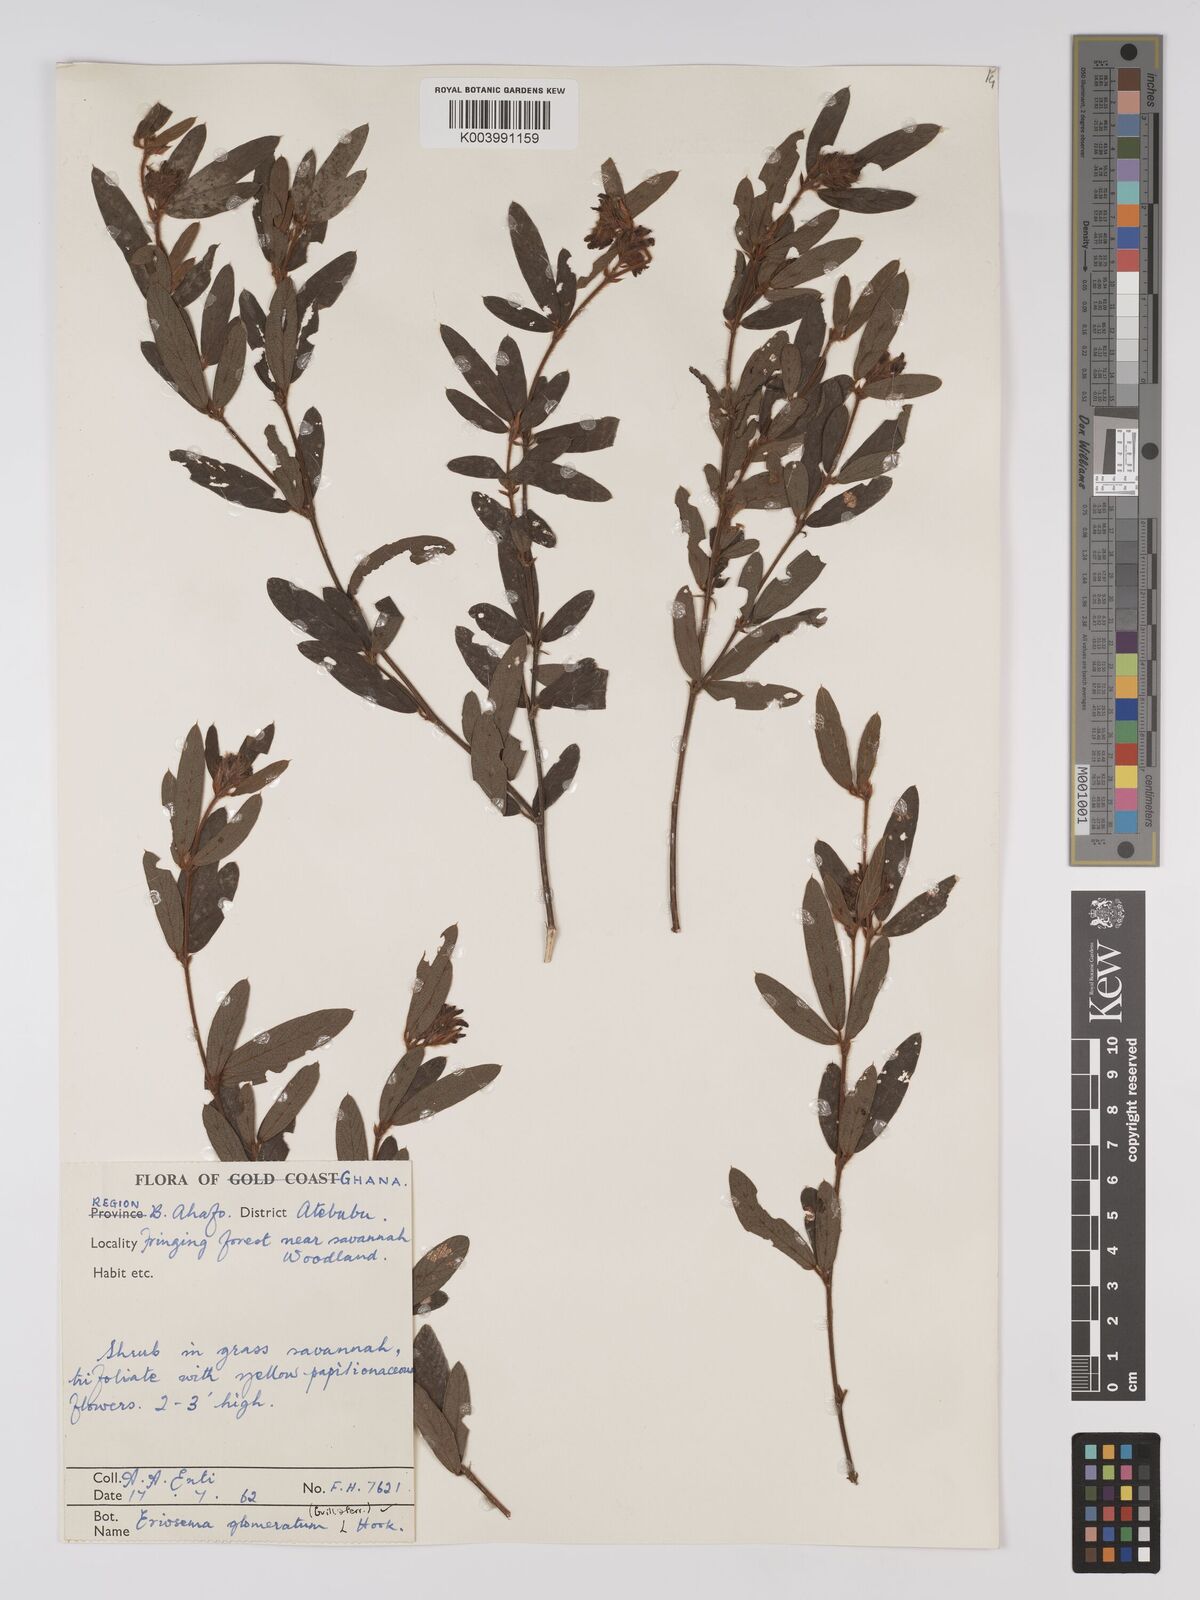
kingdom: Plantae
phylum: Tracheophyta
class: Magnoliopsida
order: Fabales
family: Fabaceae
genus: Eriosema
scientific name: Eriosema glomeratum
